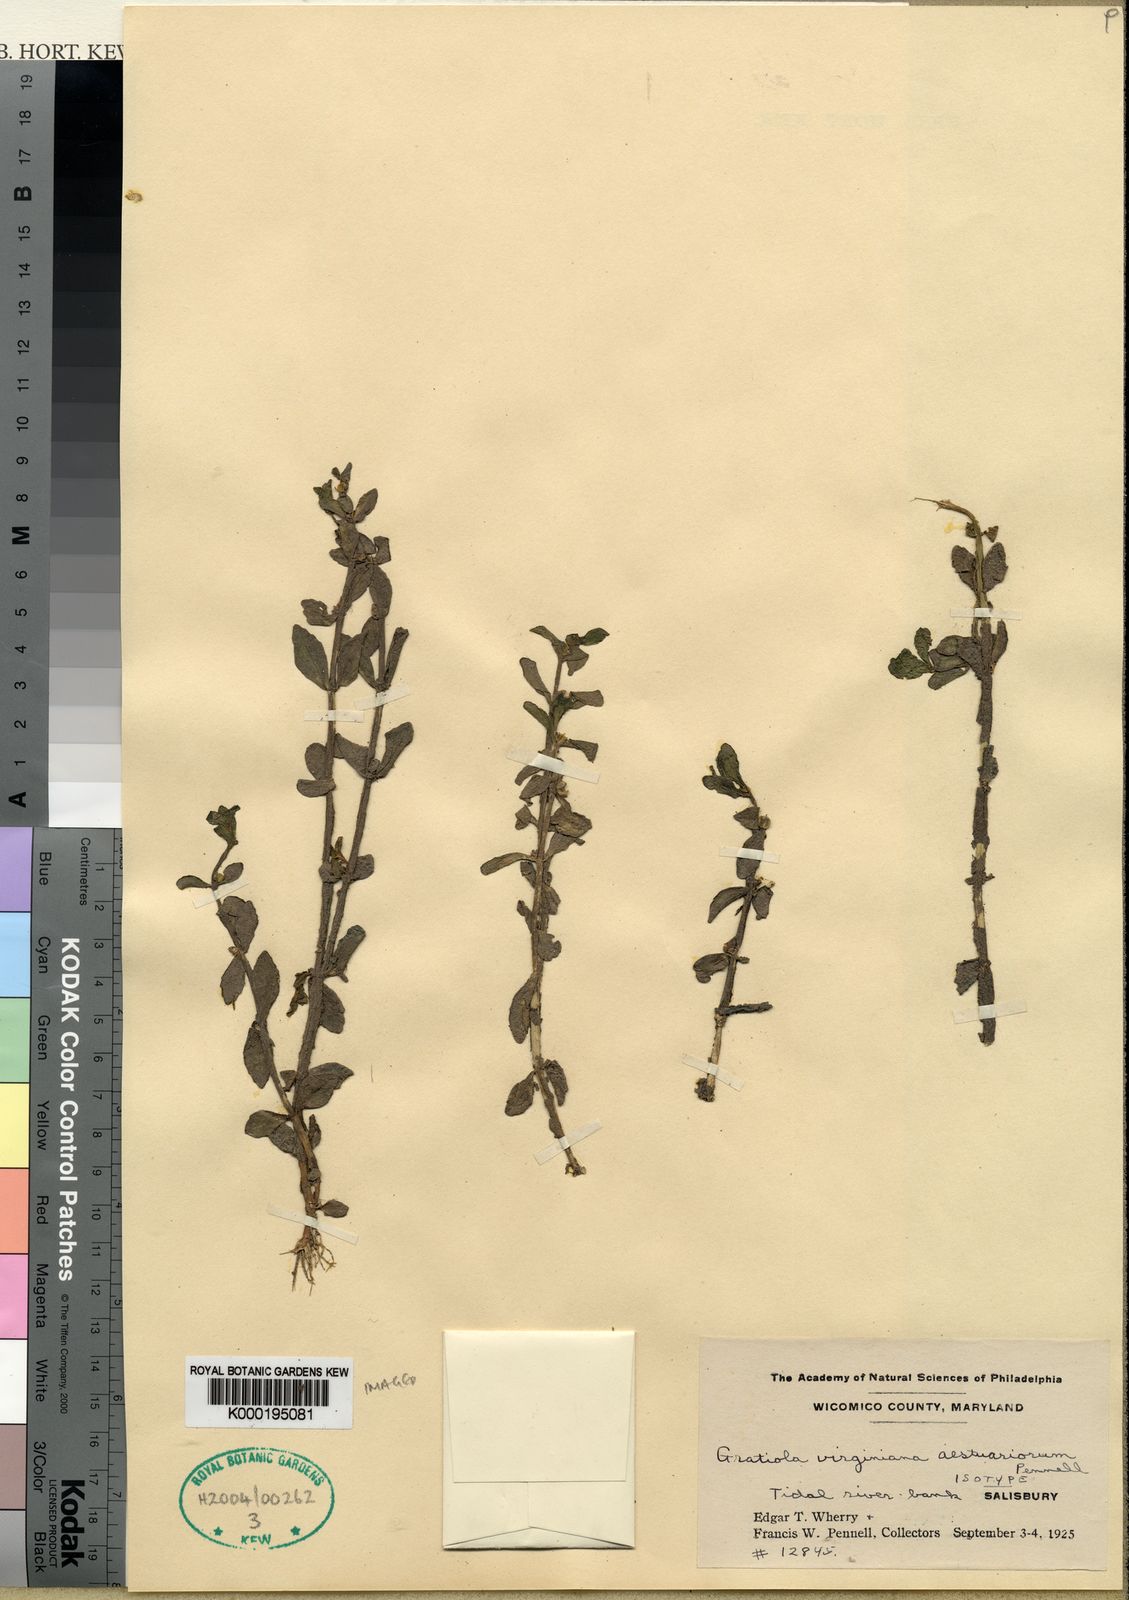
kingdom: Plantae
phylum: Tracheophyta
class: Magnoliopsida
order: Lamiales
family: Plantaginaceae
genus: Gratiola
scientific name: Gratiola neglecta
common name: American hedge-hyssop
